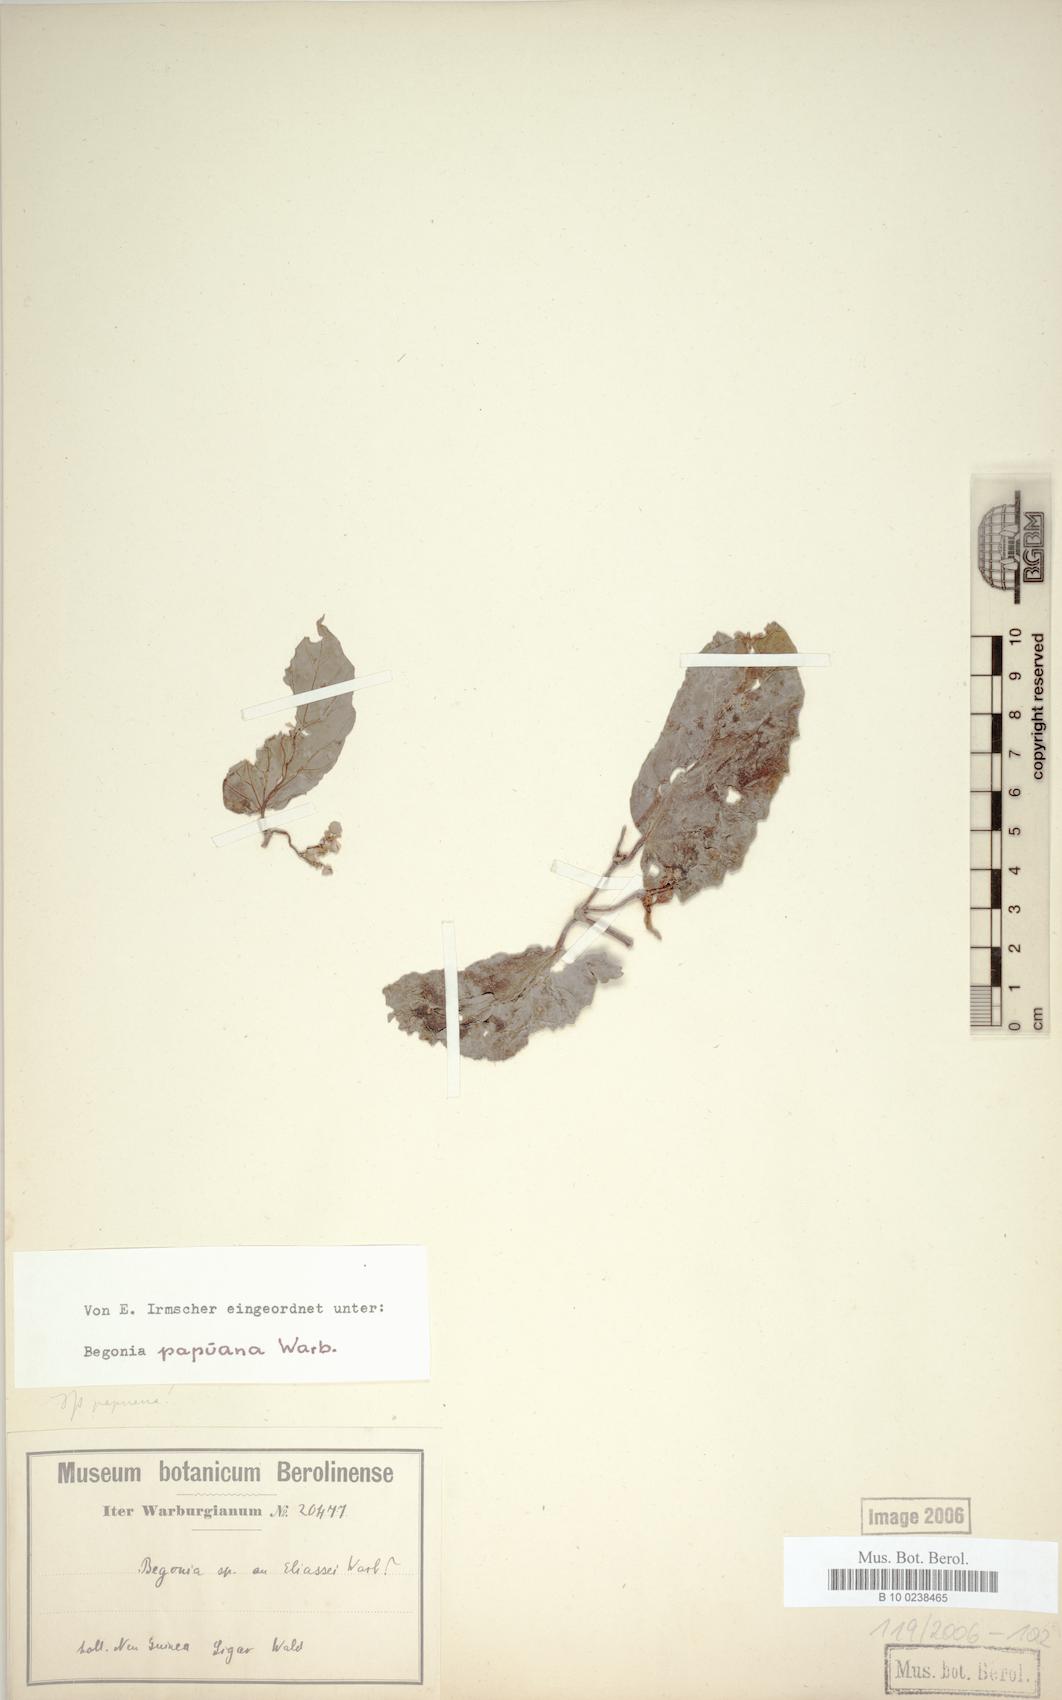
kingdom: Plantae
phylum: Tracheophyta
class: Magnoliopsida
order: Cucurbitales
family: Begoniaceae
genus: Begonia
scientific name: Begonia papuana
